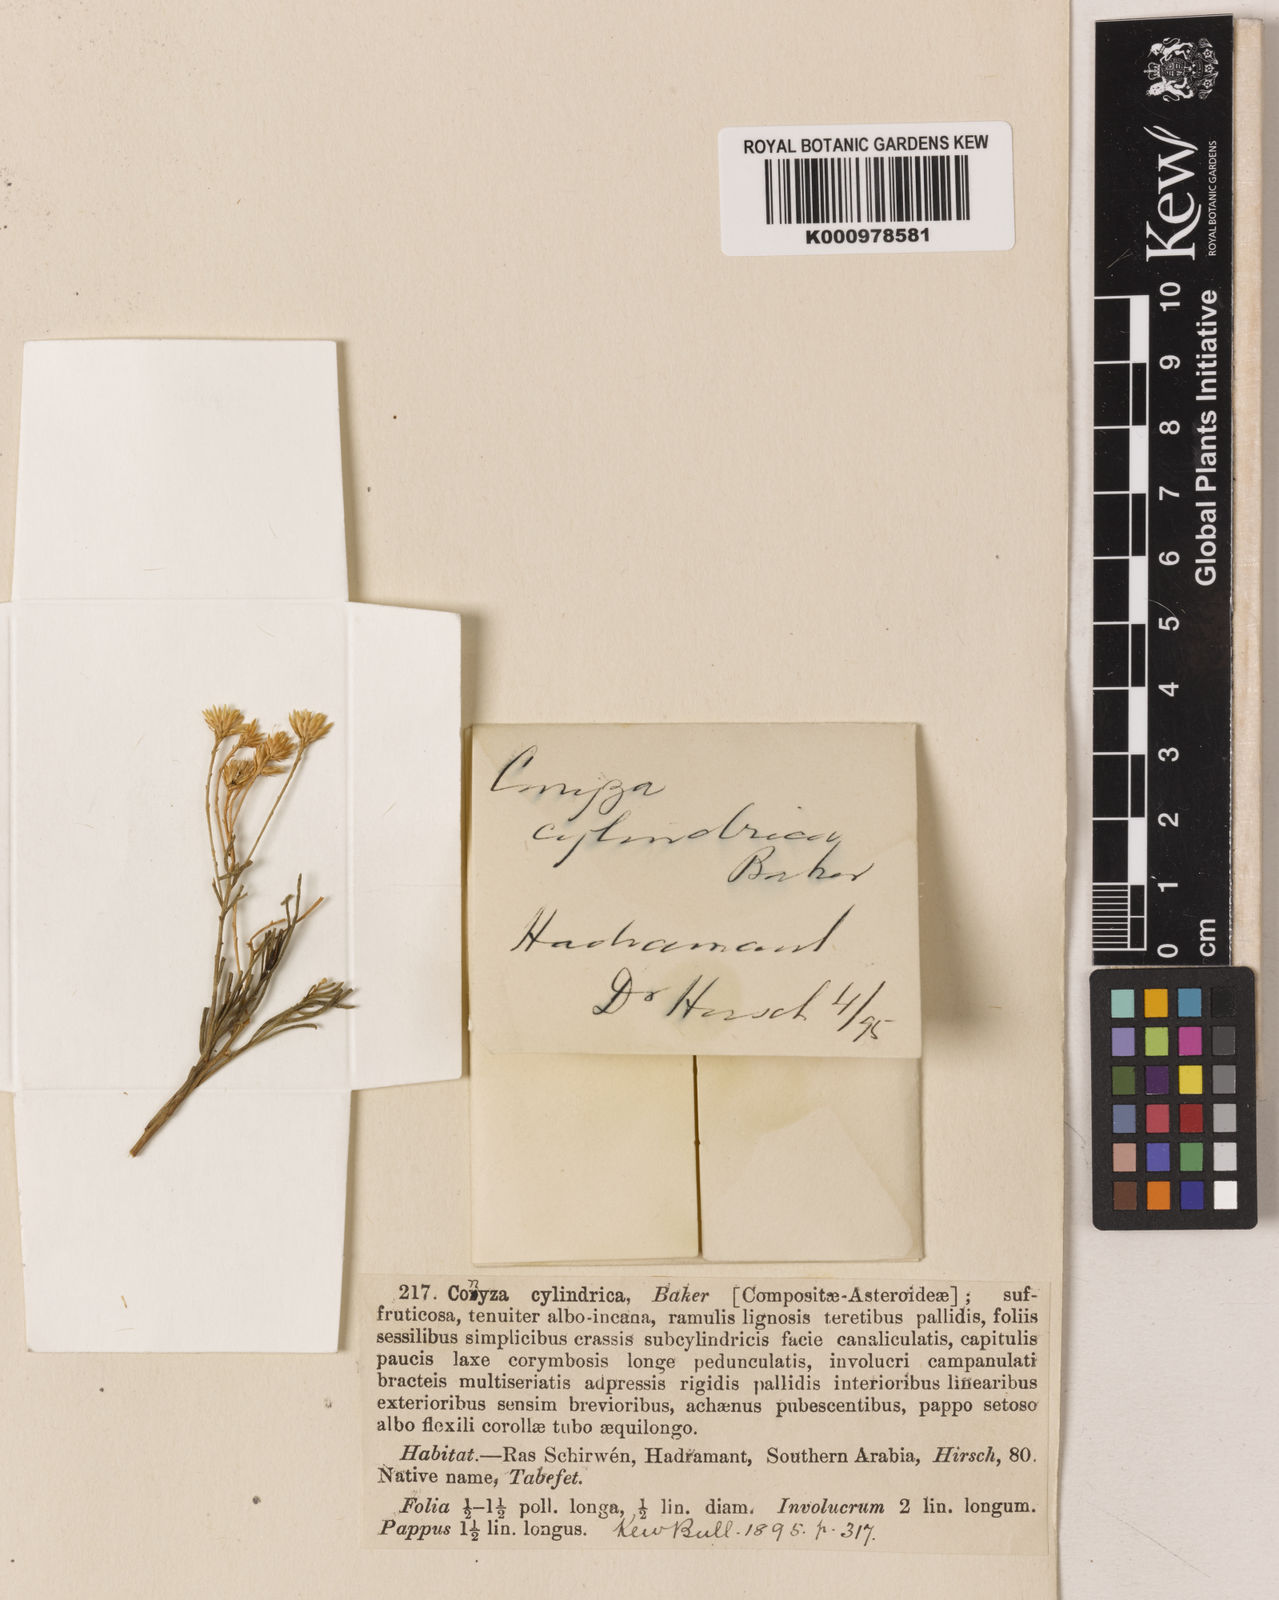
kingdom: Plantae
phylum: Tracheophyta
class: Magnoliopsida
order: Asterales
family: Asteraceae
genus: Pulicaria
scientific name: Pulicaria glutinosa
